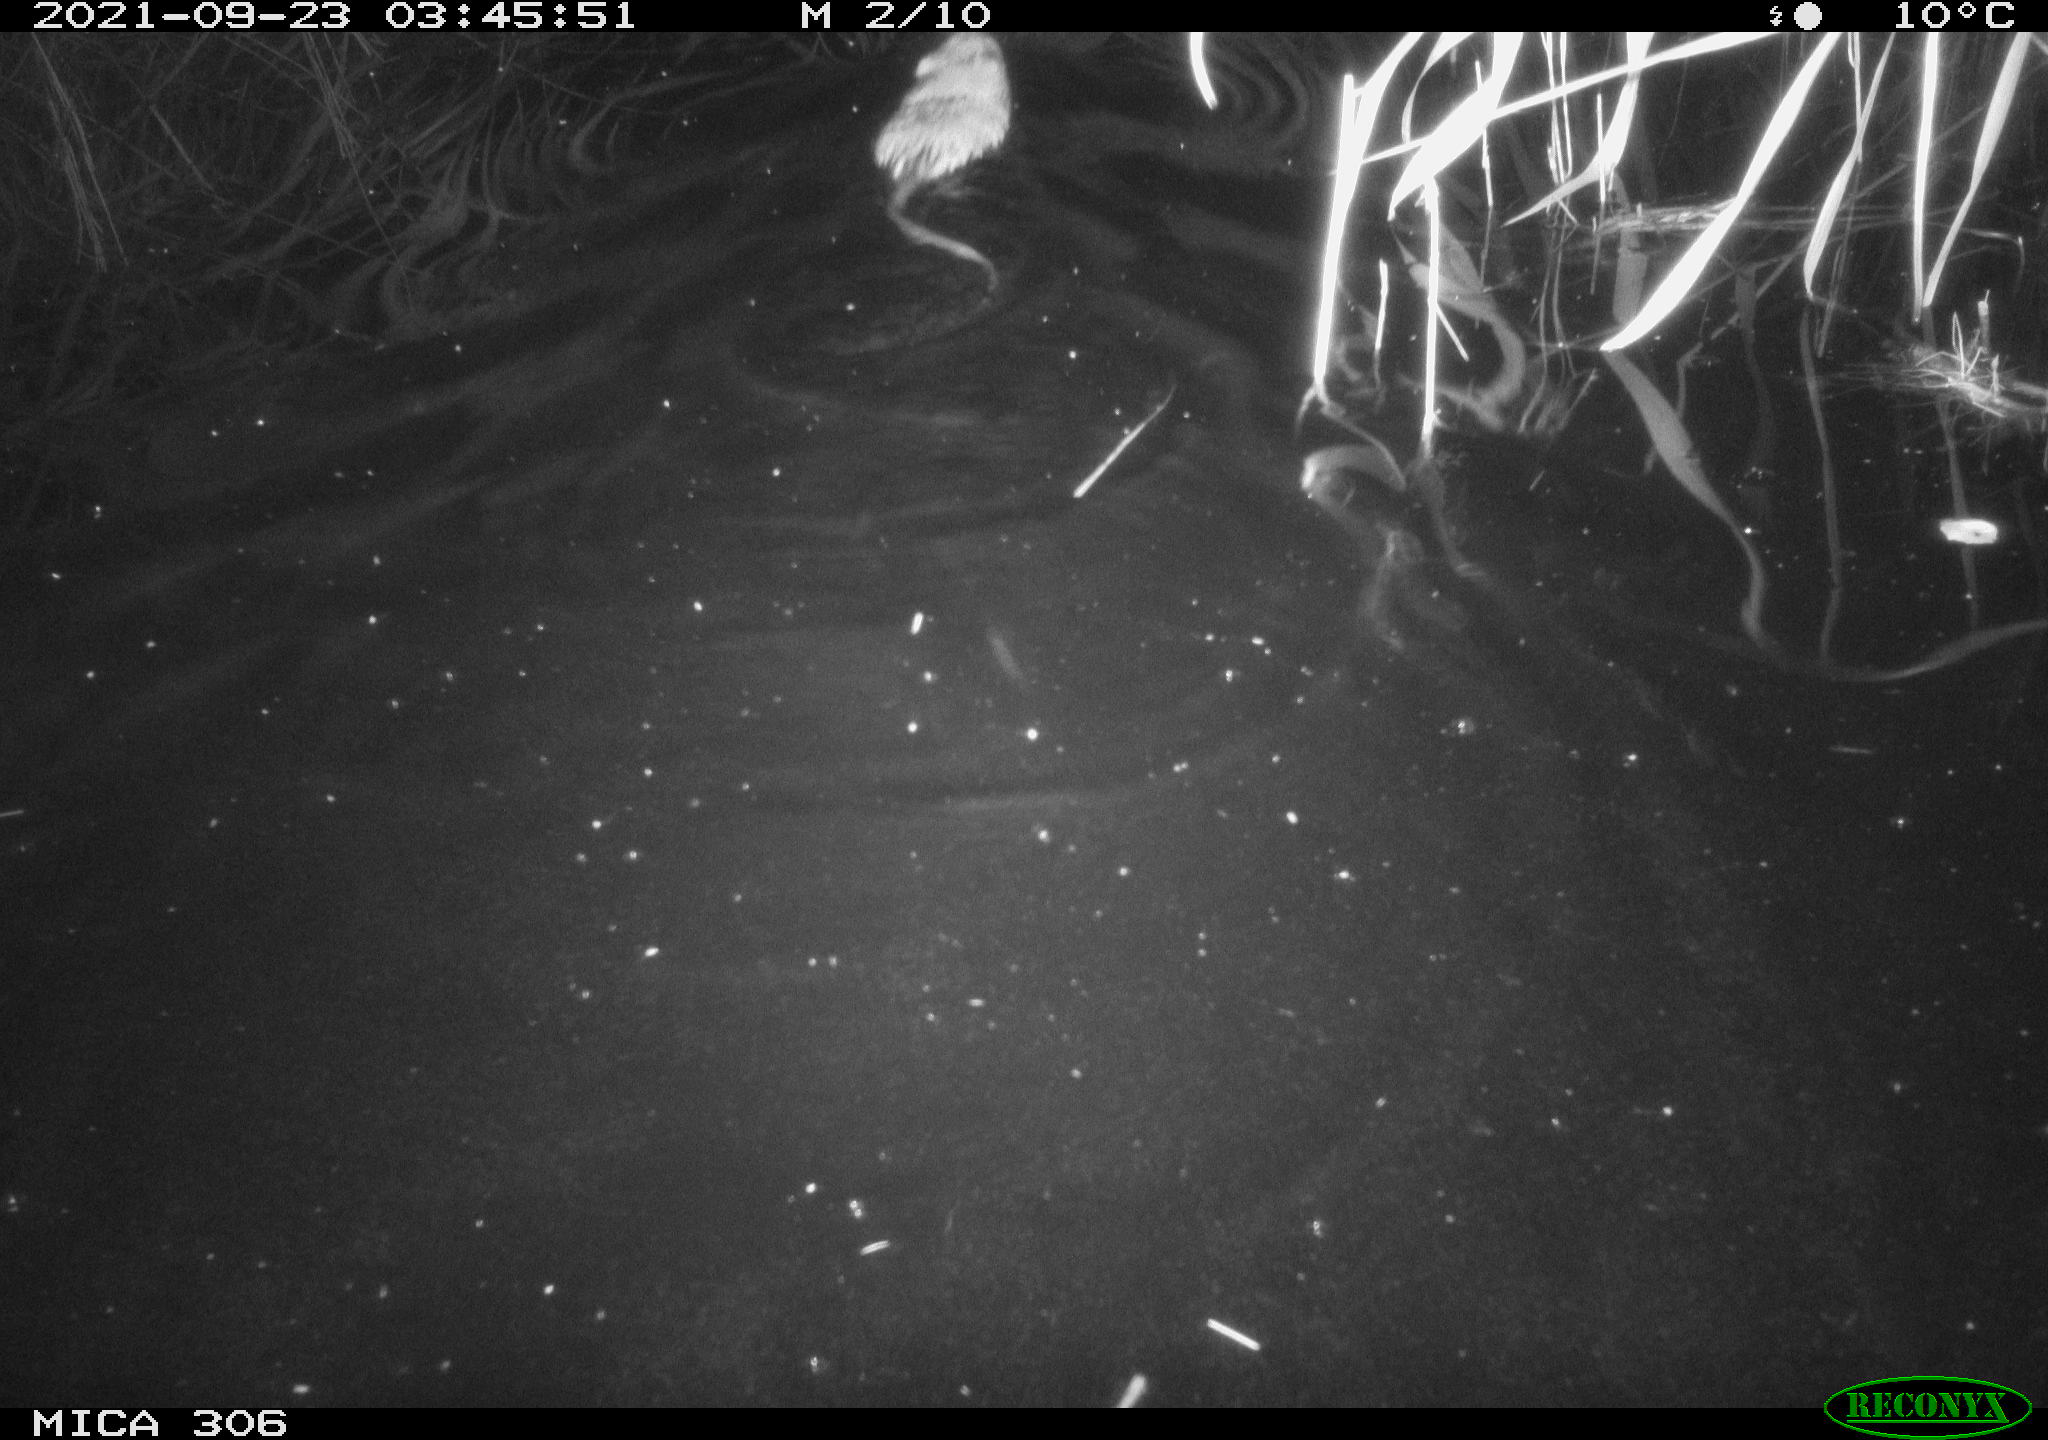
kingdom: Animalia
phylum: Chordata
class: Mammalia
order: Rodentia
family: Cricetidae
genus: Ondatra
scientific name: Ondatra zibethicus
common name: Muskrat
